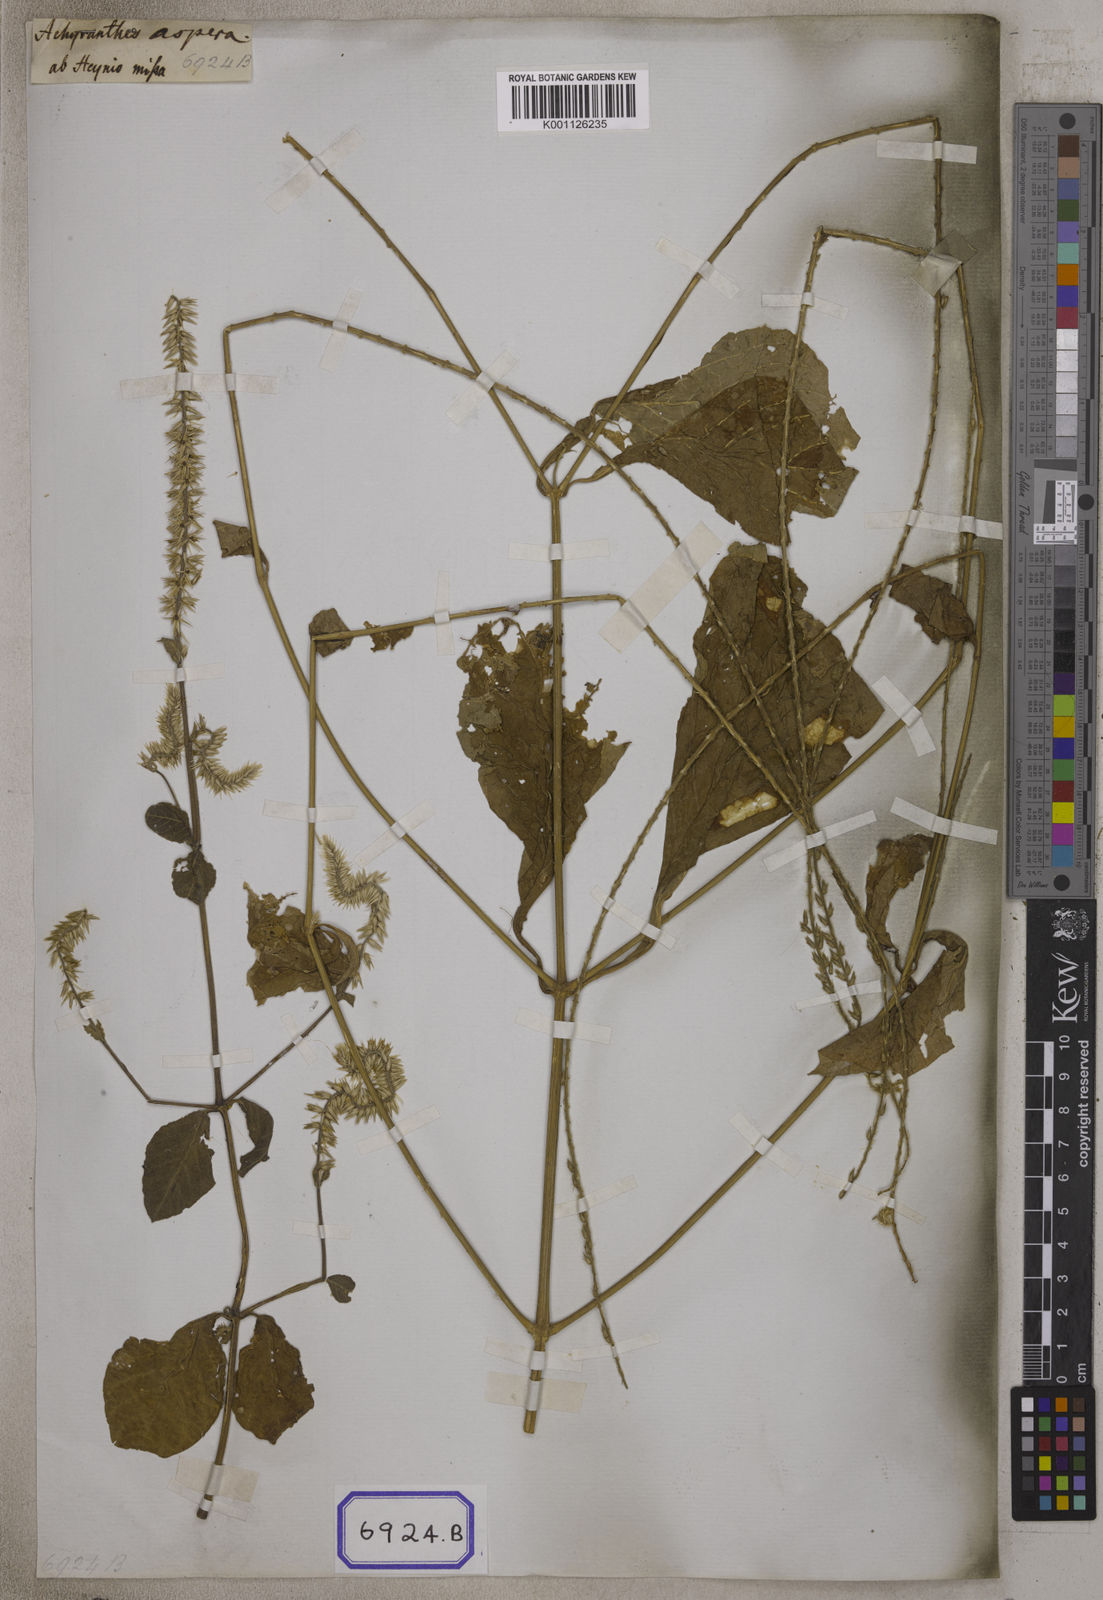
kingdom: Plantae
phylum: Tracheophyta
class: Magnoliopsida
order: Caryophyllales
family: Amaranthaceae
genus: Achyranthes
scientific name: Achyranthes
